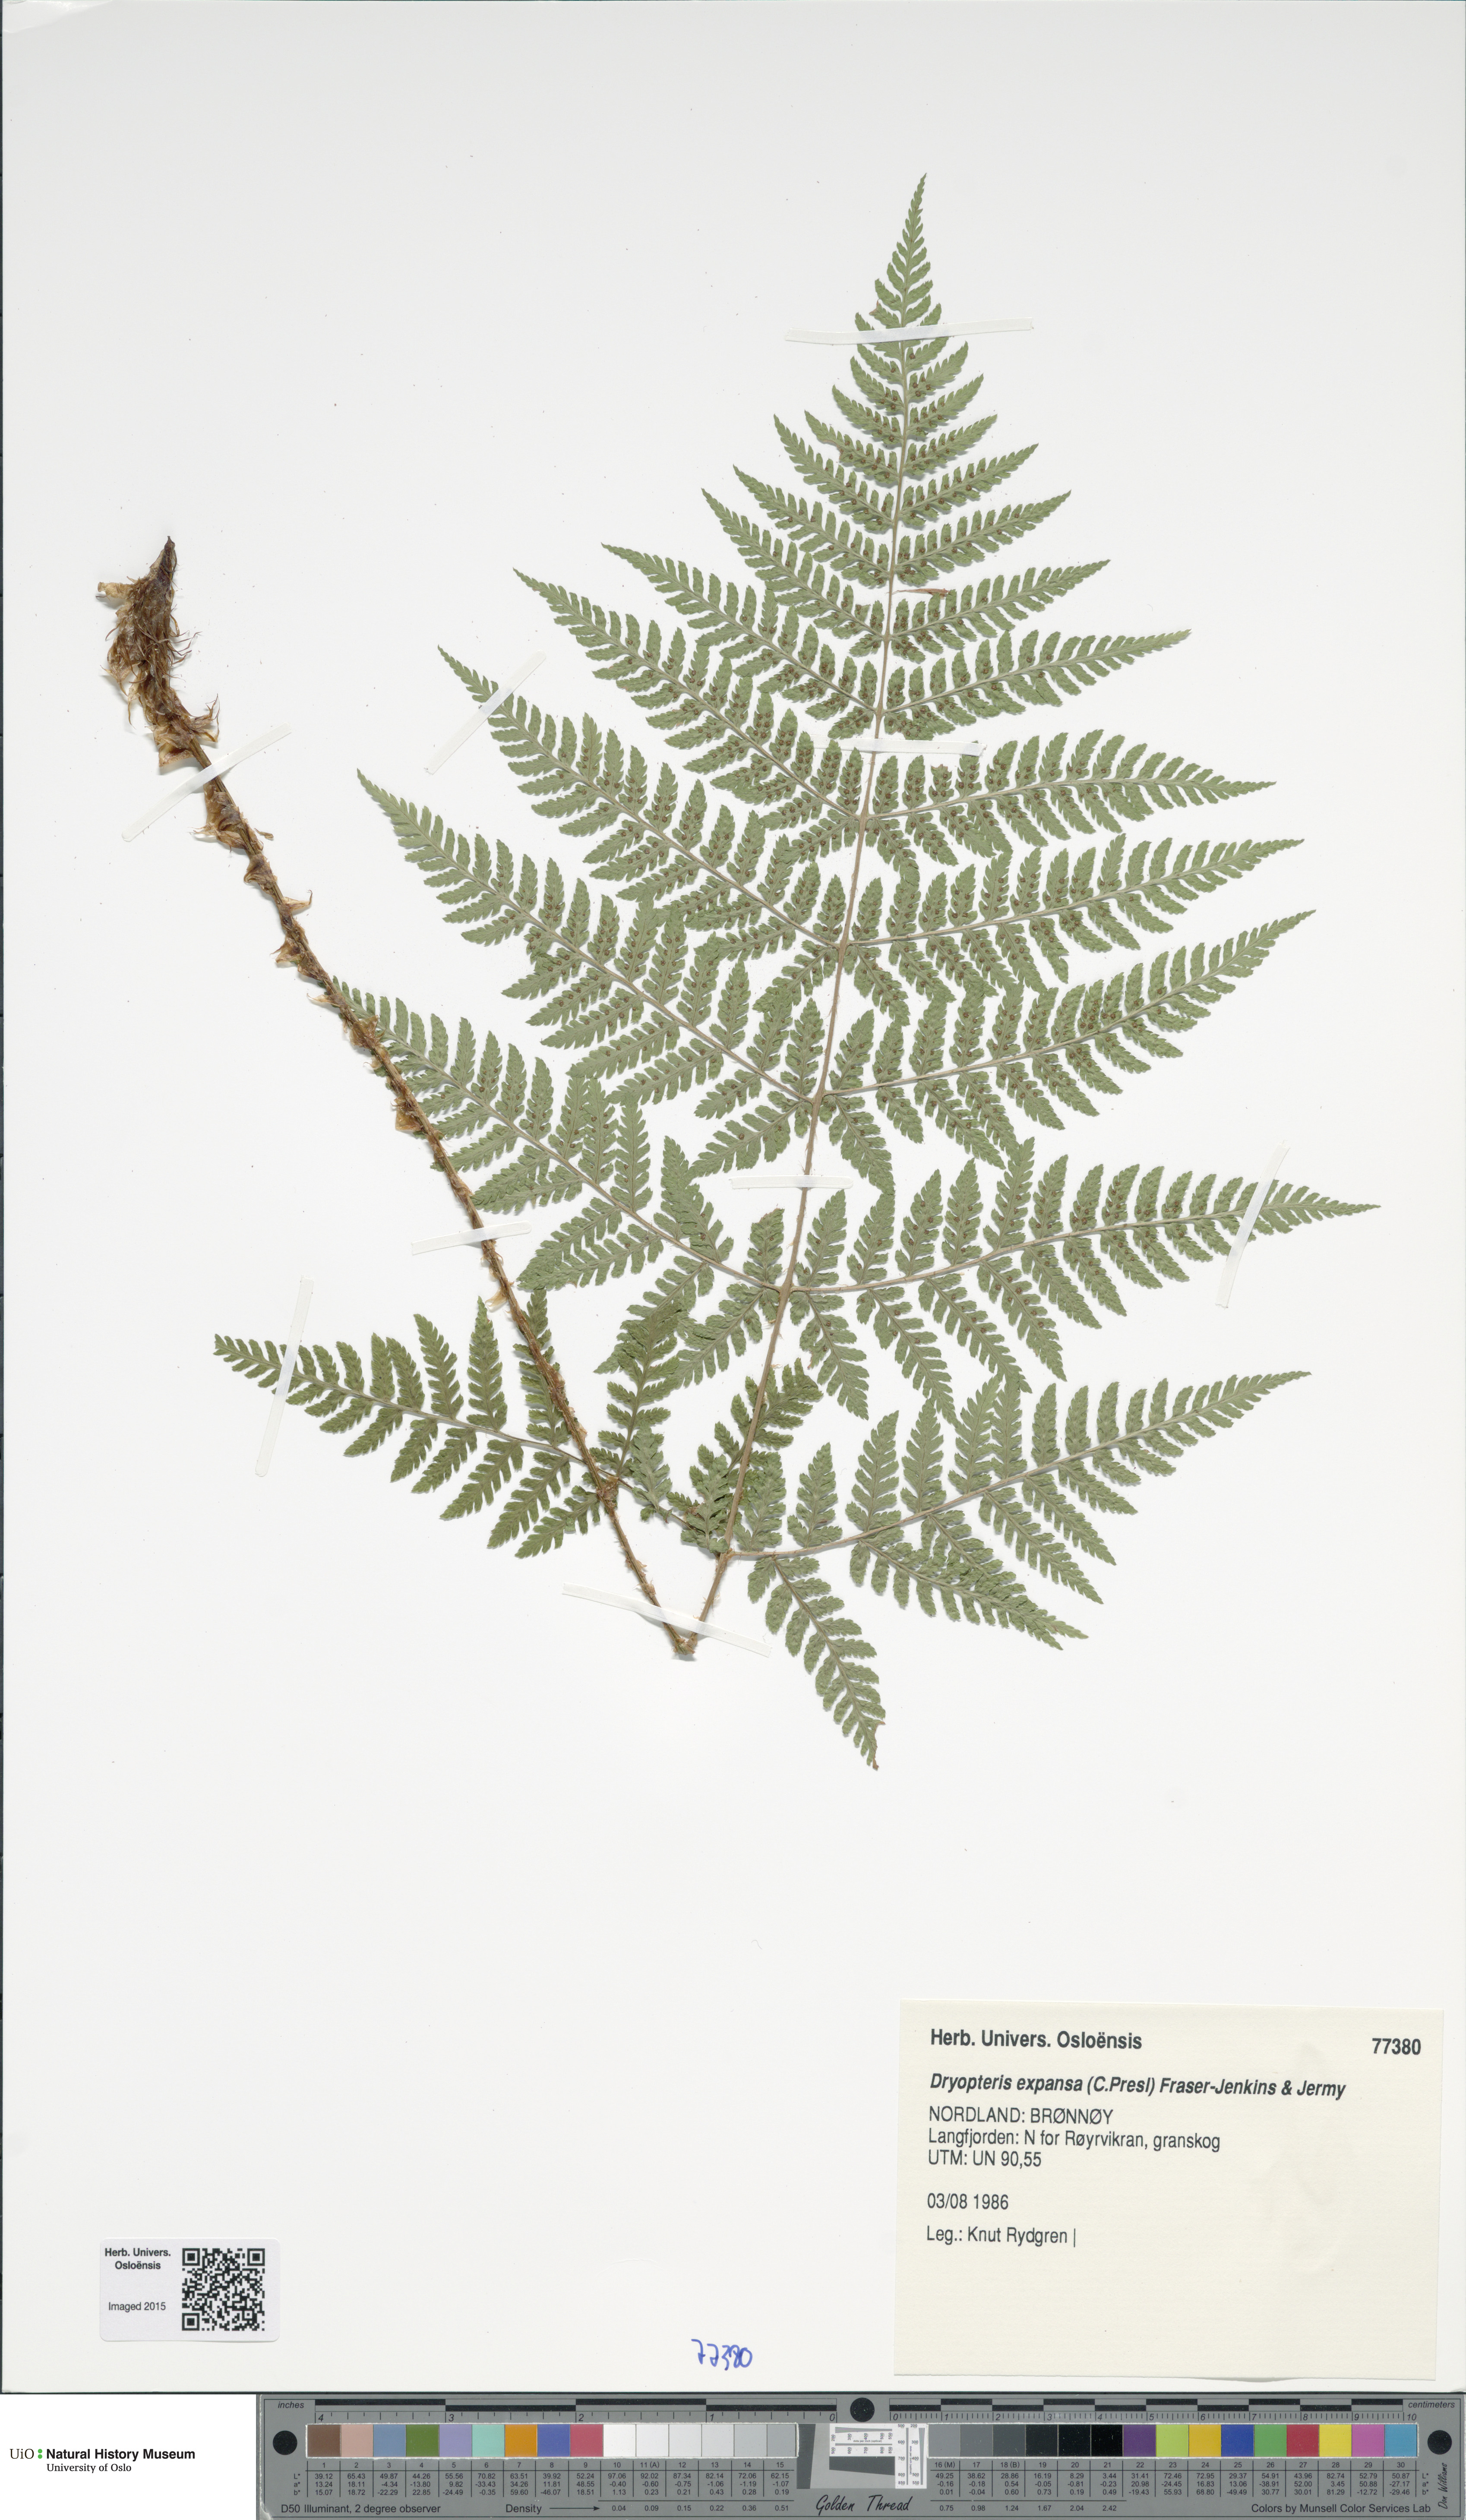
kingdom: Plantae
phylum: Tracheophyta
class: Polypodiopsida
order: Polypodiales
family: Dryopteridaceae
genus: Dryopteris
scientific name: Dryopteris expansa
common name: Northern buckler fern
